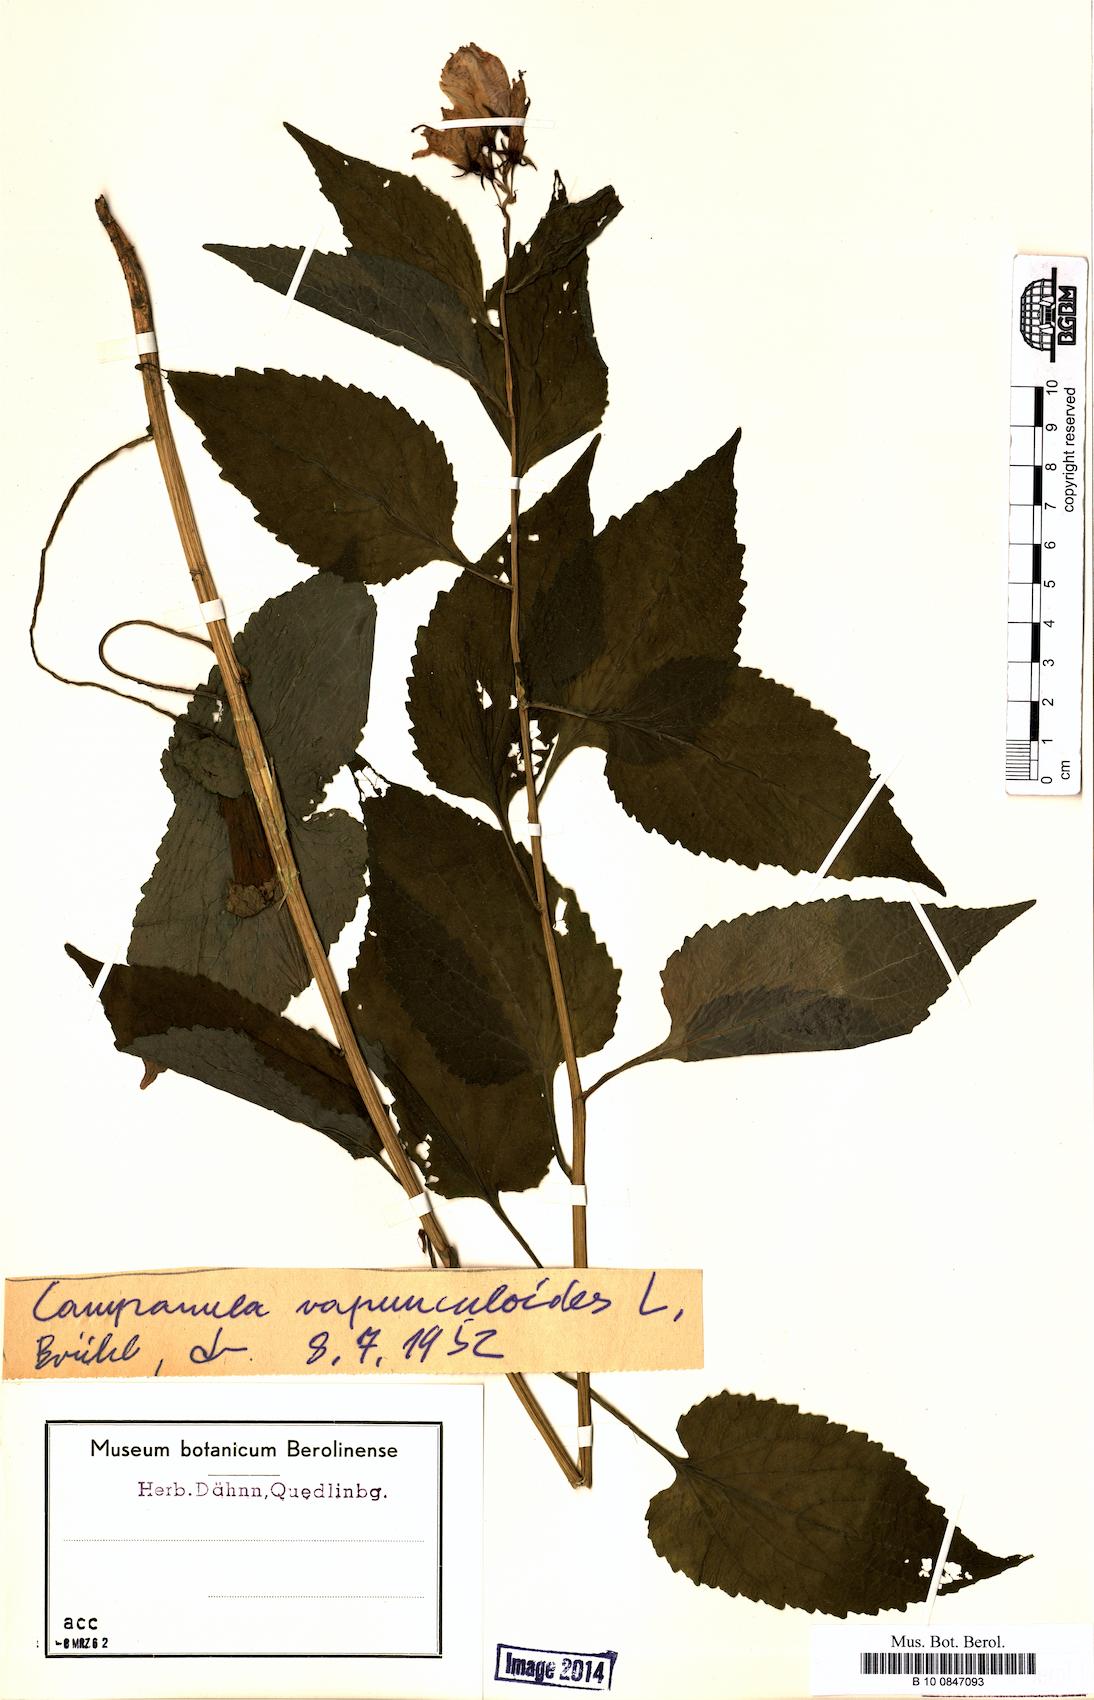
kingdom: Plantae
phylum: Tracheophyta
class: Magnoliopsida
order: Asterales
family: Campanulaceae
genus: Campanula
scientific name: Campanula rapunculoides
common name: Creeping bellflower
